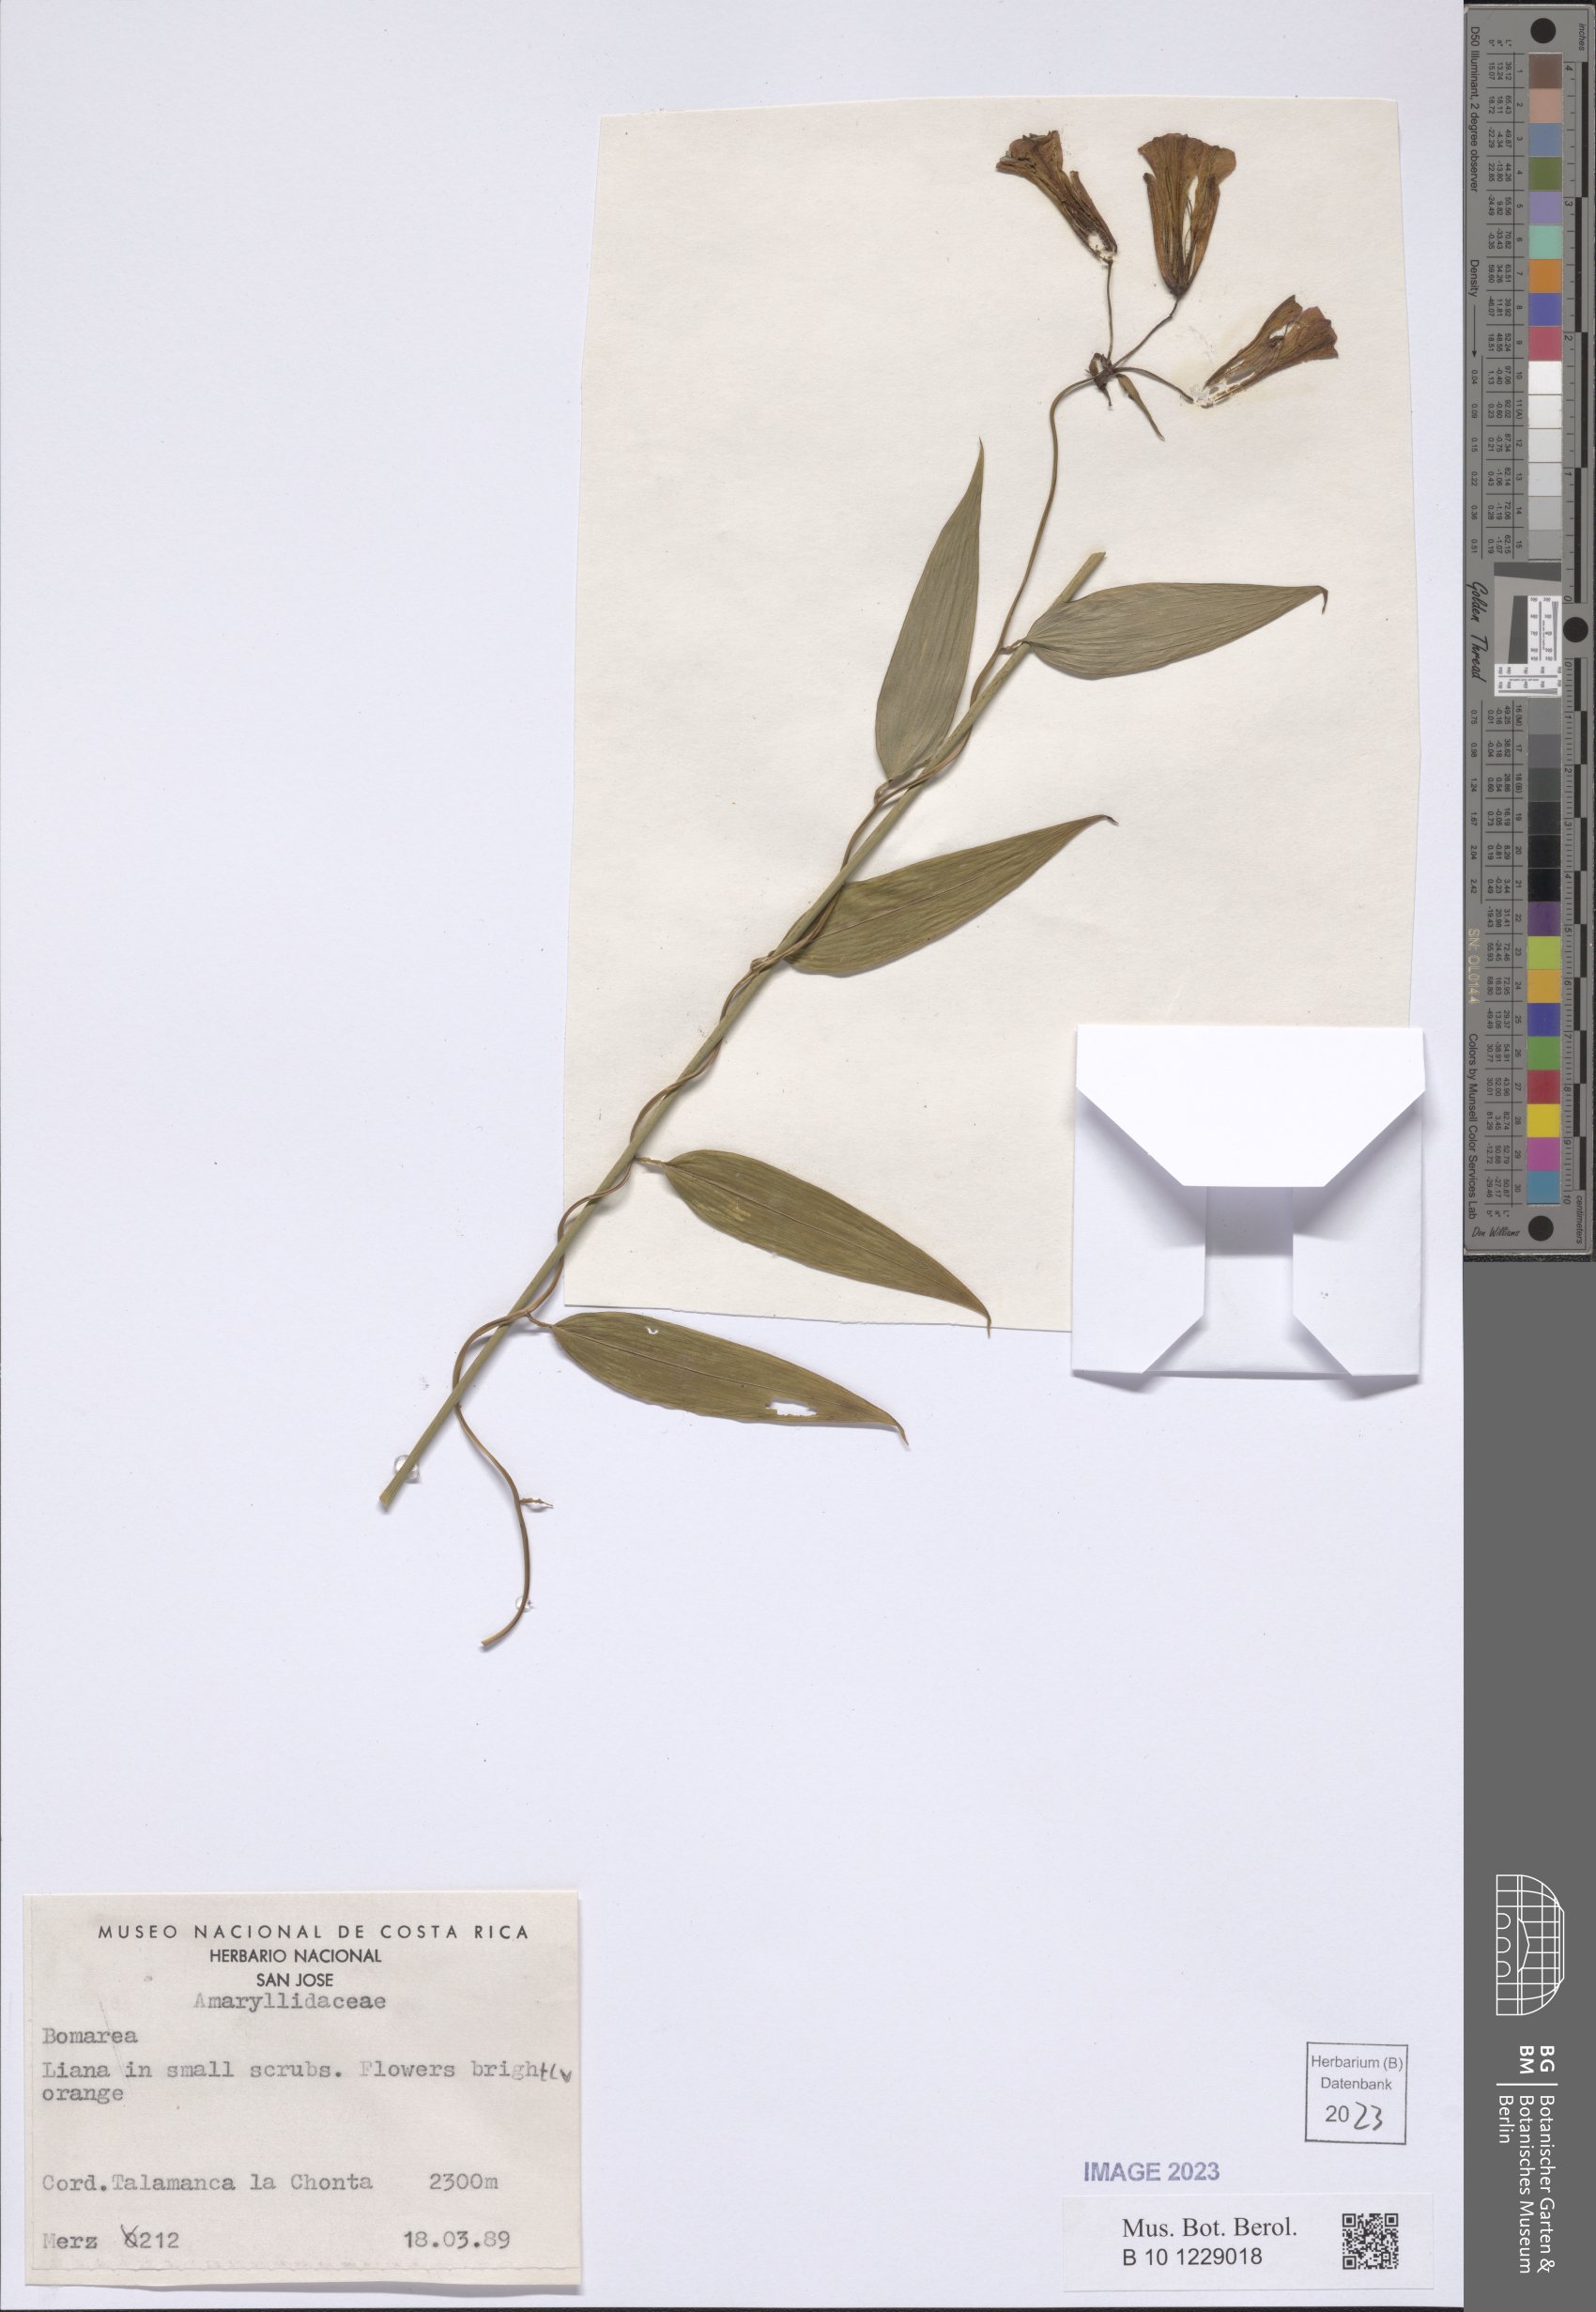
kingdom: Plantae
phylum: Tracheophyta
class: Liliopsida
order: Liliales
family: Alstroemeriaceae
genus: Bomarea
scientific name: Bomarea
